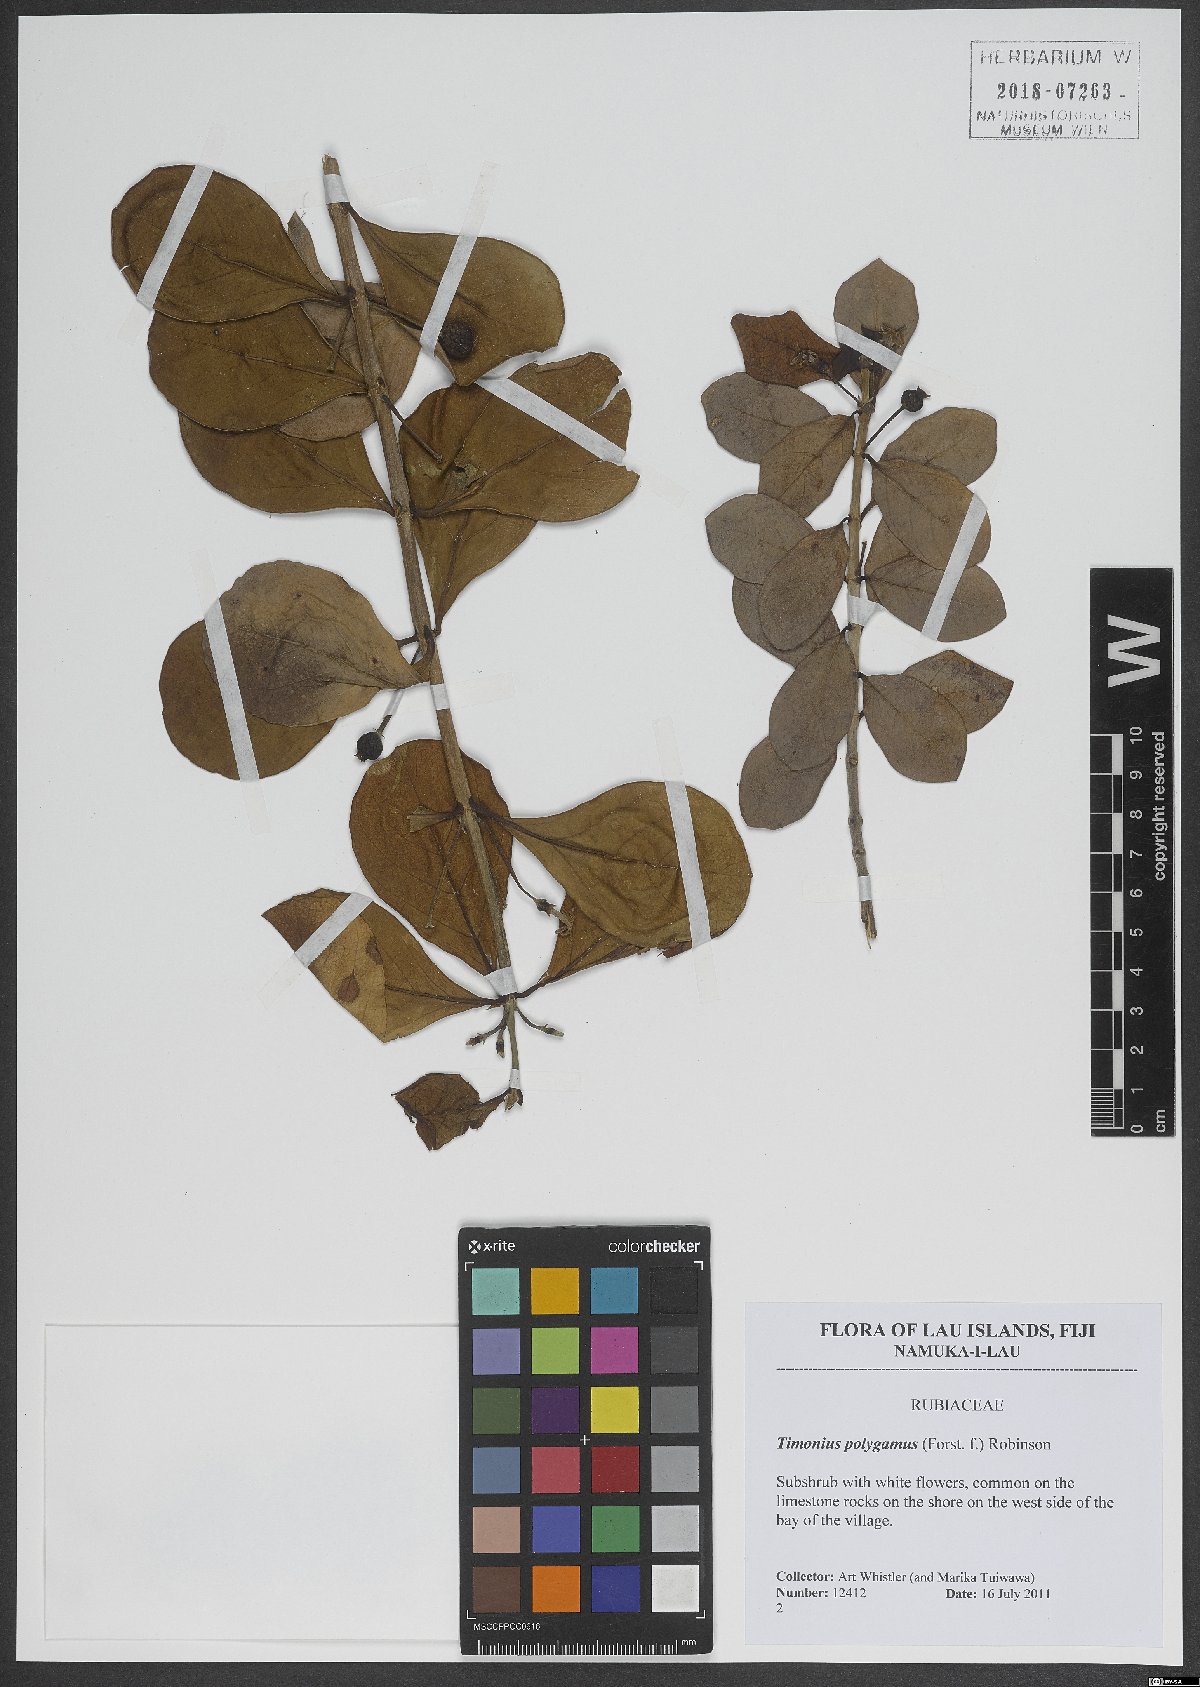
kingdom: Plantae
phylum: Tracheophyta
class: Magnoliopsida
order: Gentianales
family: Rubiaceae
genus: Timonius
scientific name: Timonius uniflorus
